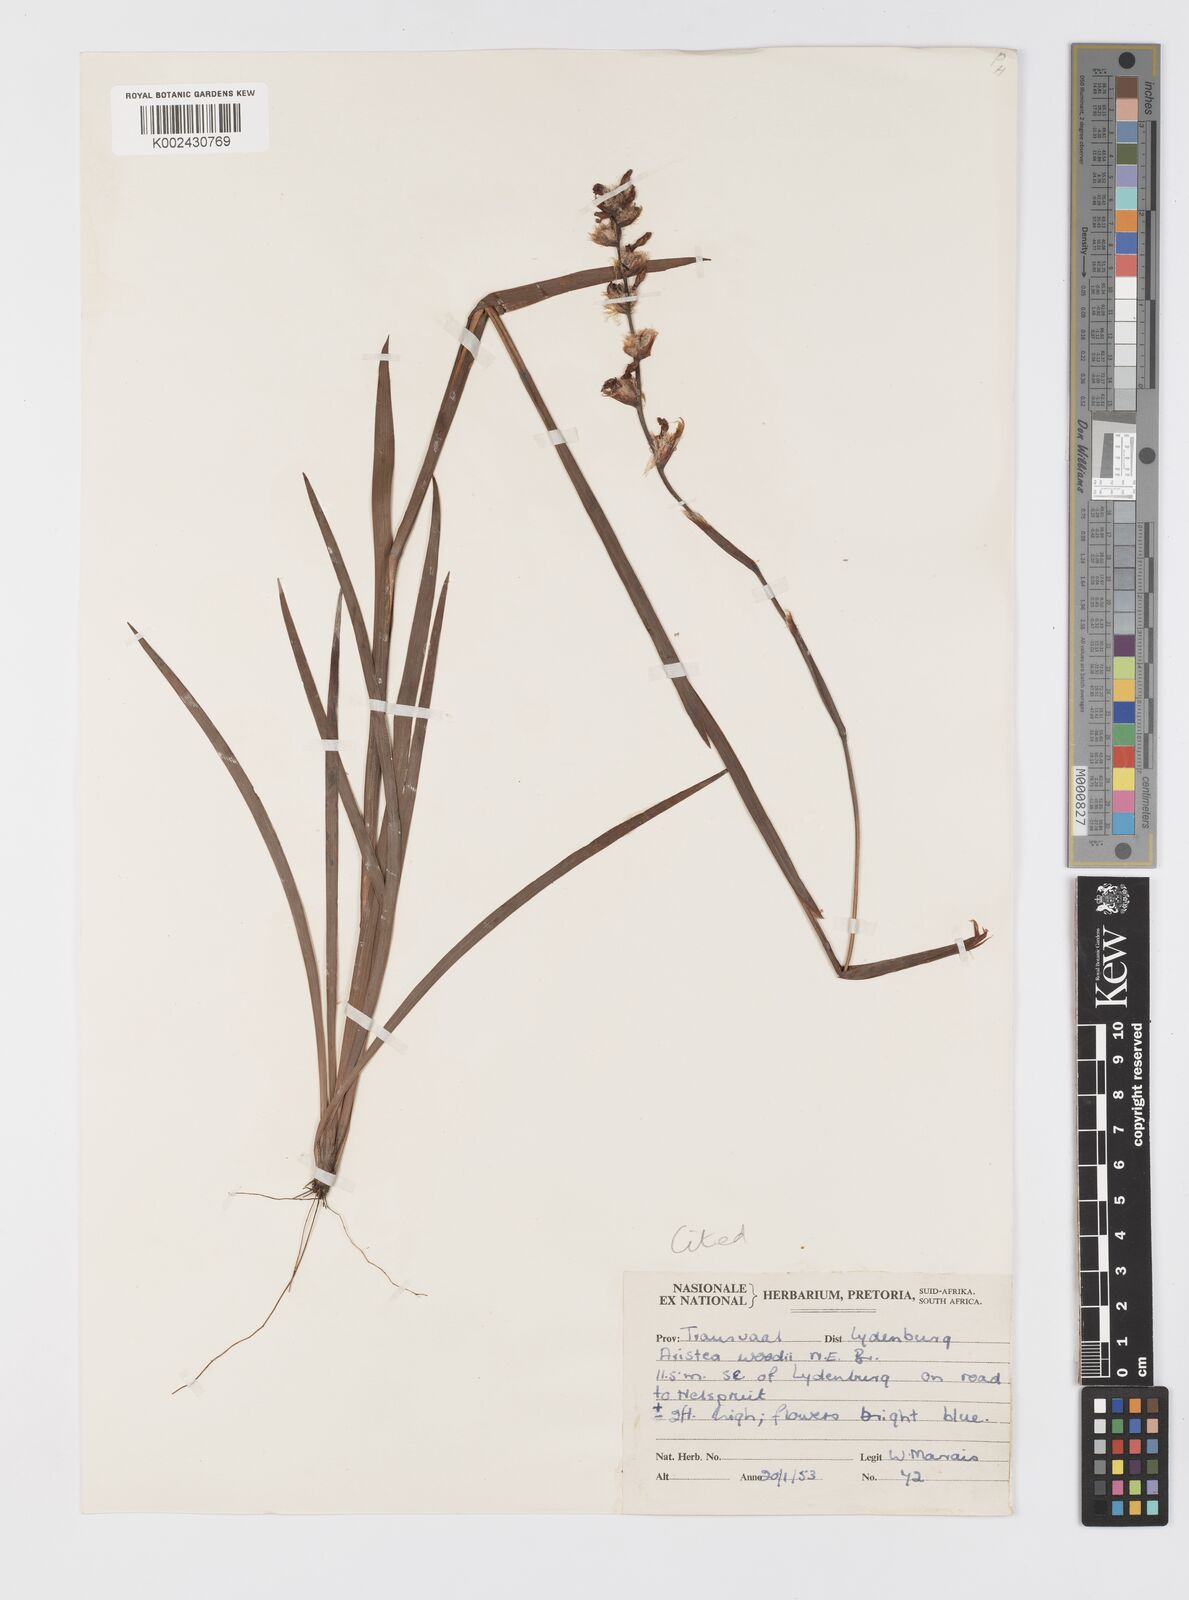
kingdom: Plantae
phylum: Tracheophyta
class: Liliopsida
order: Asparagales
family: Iridaceae
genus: Aristea
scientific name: Aristea torulosa
